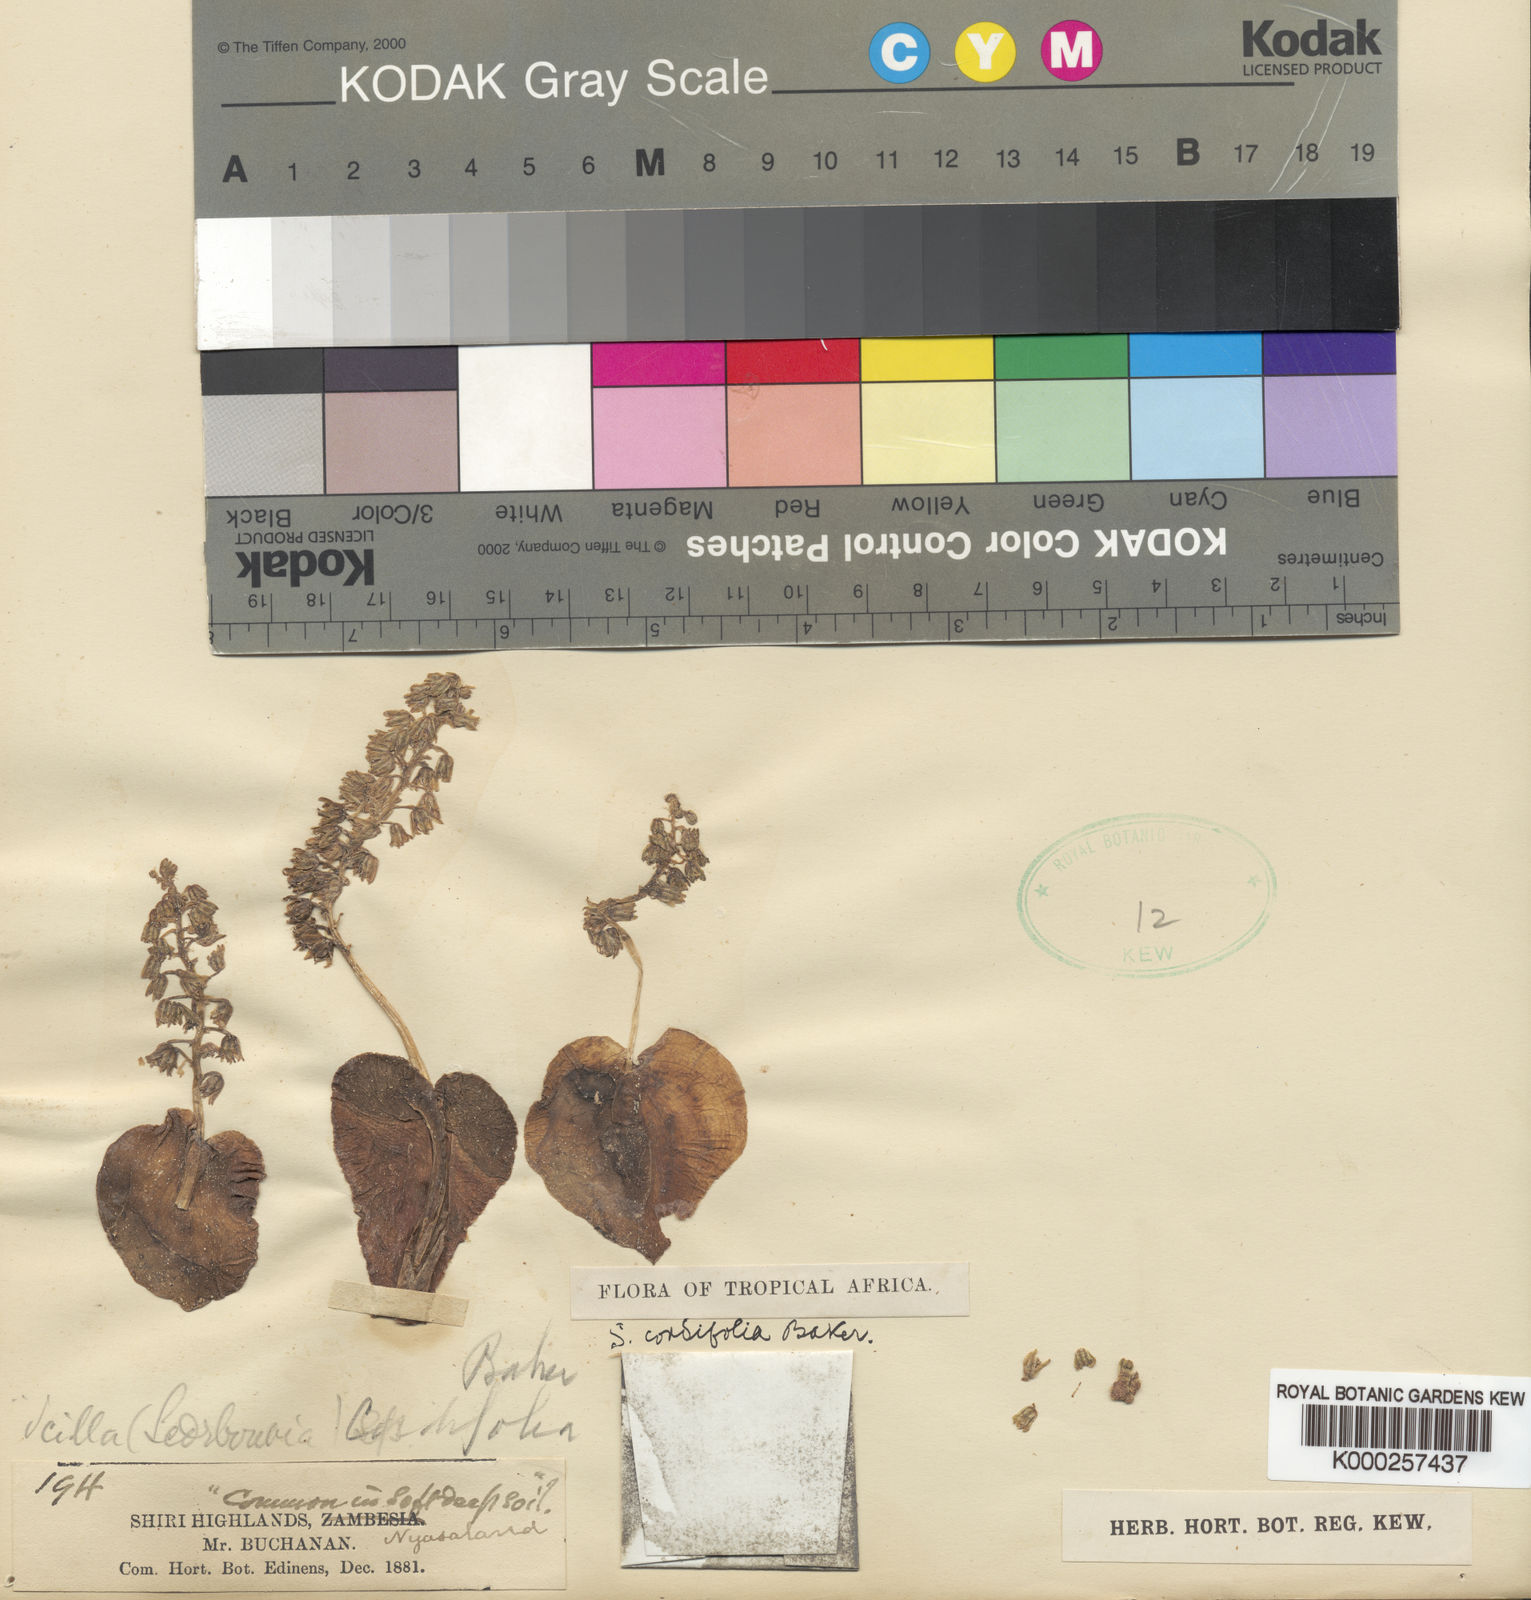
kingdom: Plantae
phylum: Tracheophyta
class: Liliopsida
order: Asparagales
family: Asparagaceae
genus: Ledebouria
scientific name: Ledebouria cordifolia
